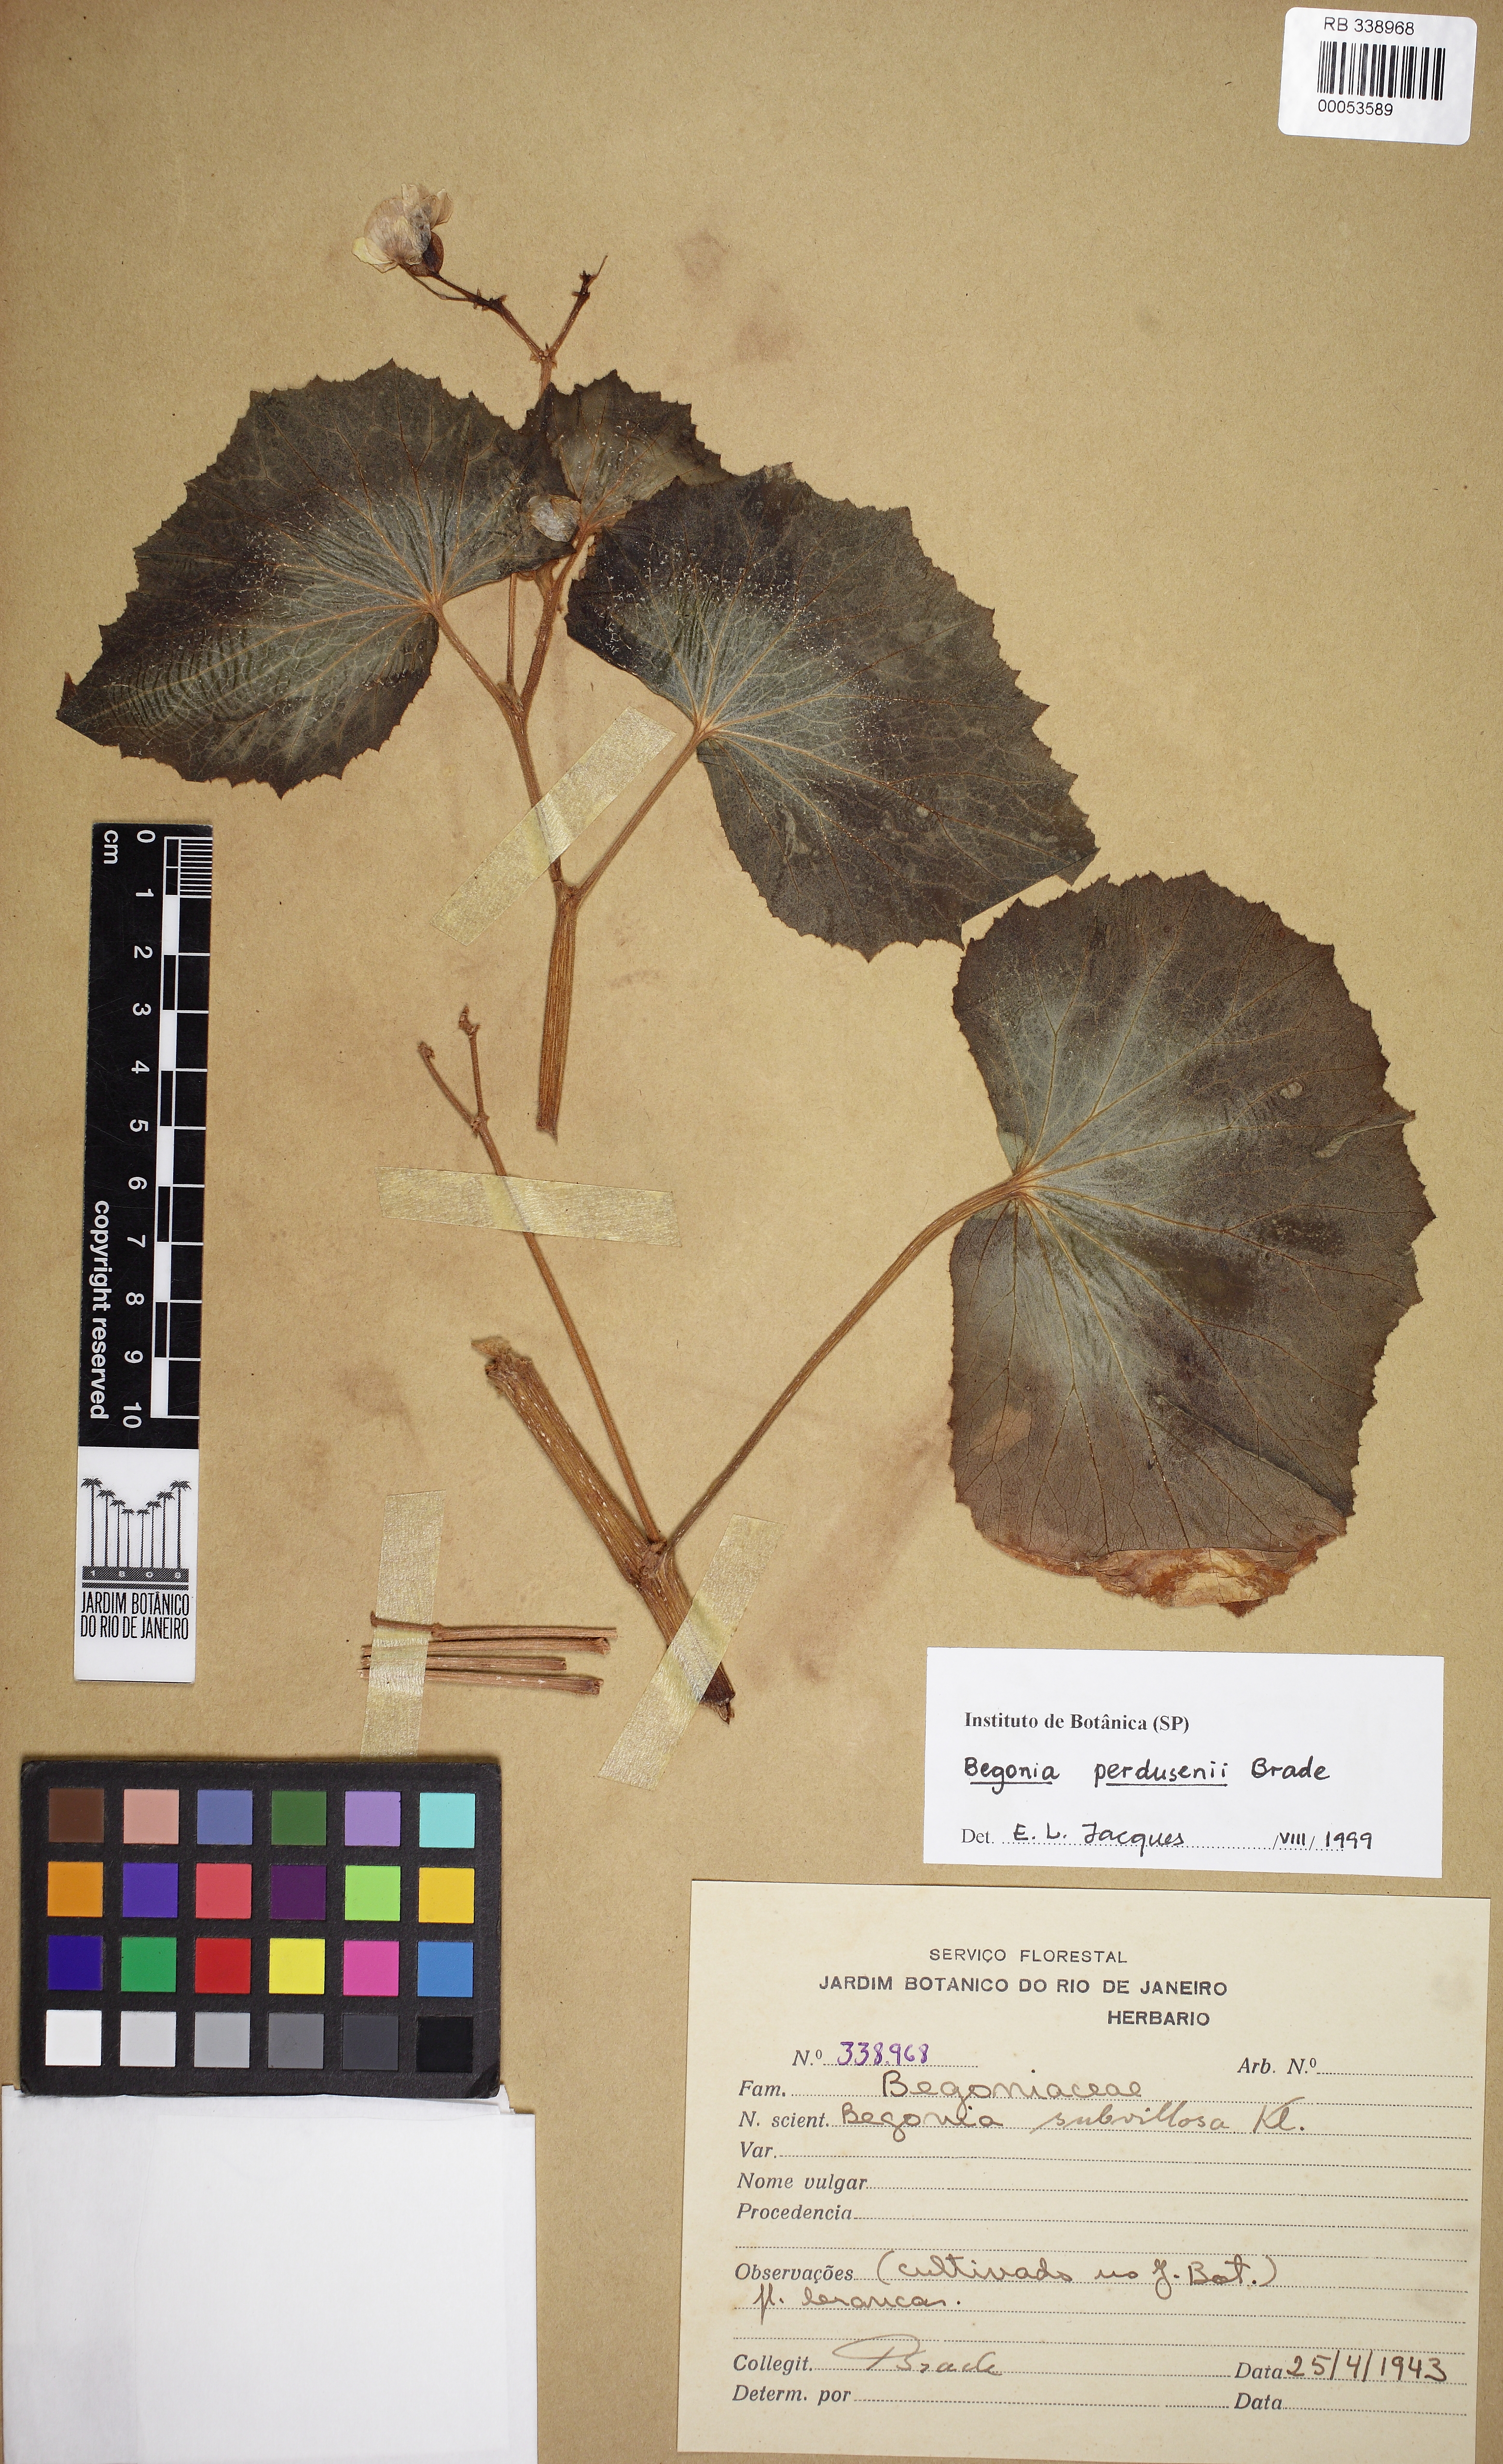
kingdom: Plantae
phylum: Tracheophyta
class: Magnoliopsida
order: Cucurbitales
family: Begoniaceae
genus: Begonia
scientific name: Begonia perdusenii
